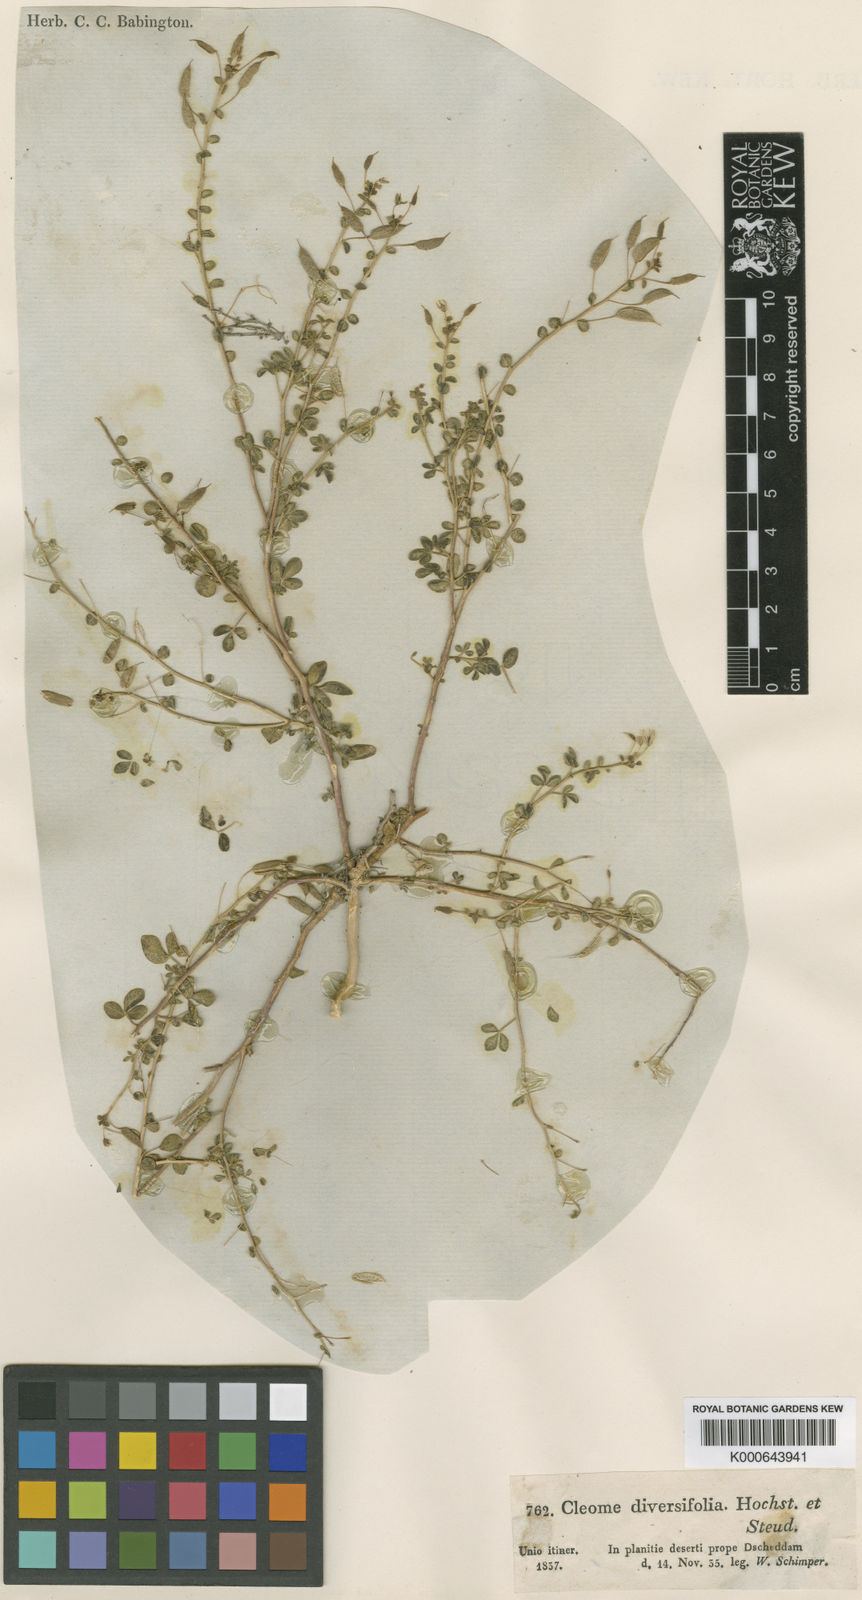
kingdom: Plantae
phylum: Tracheophyta
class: Magnoliopsida
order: Brassicales
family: Cleomaceae
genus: Stylidocleome
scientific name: Stylidocleome brachycarpa
